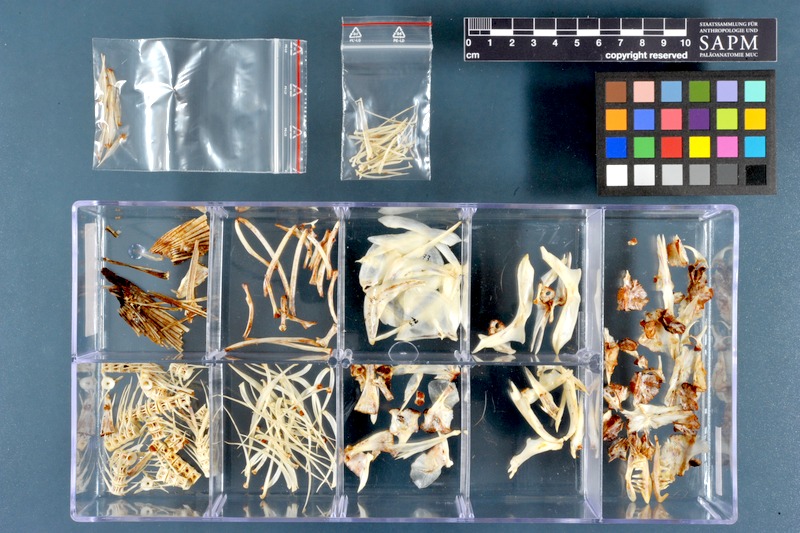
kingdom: Animalia
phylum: Chordata
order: Cypriniformes
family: Cyprinidae
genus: Leuciscus
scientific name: Leuciscus vorax
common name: Mesopotamian asp
